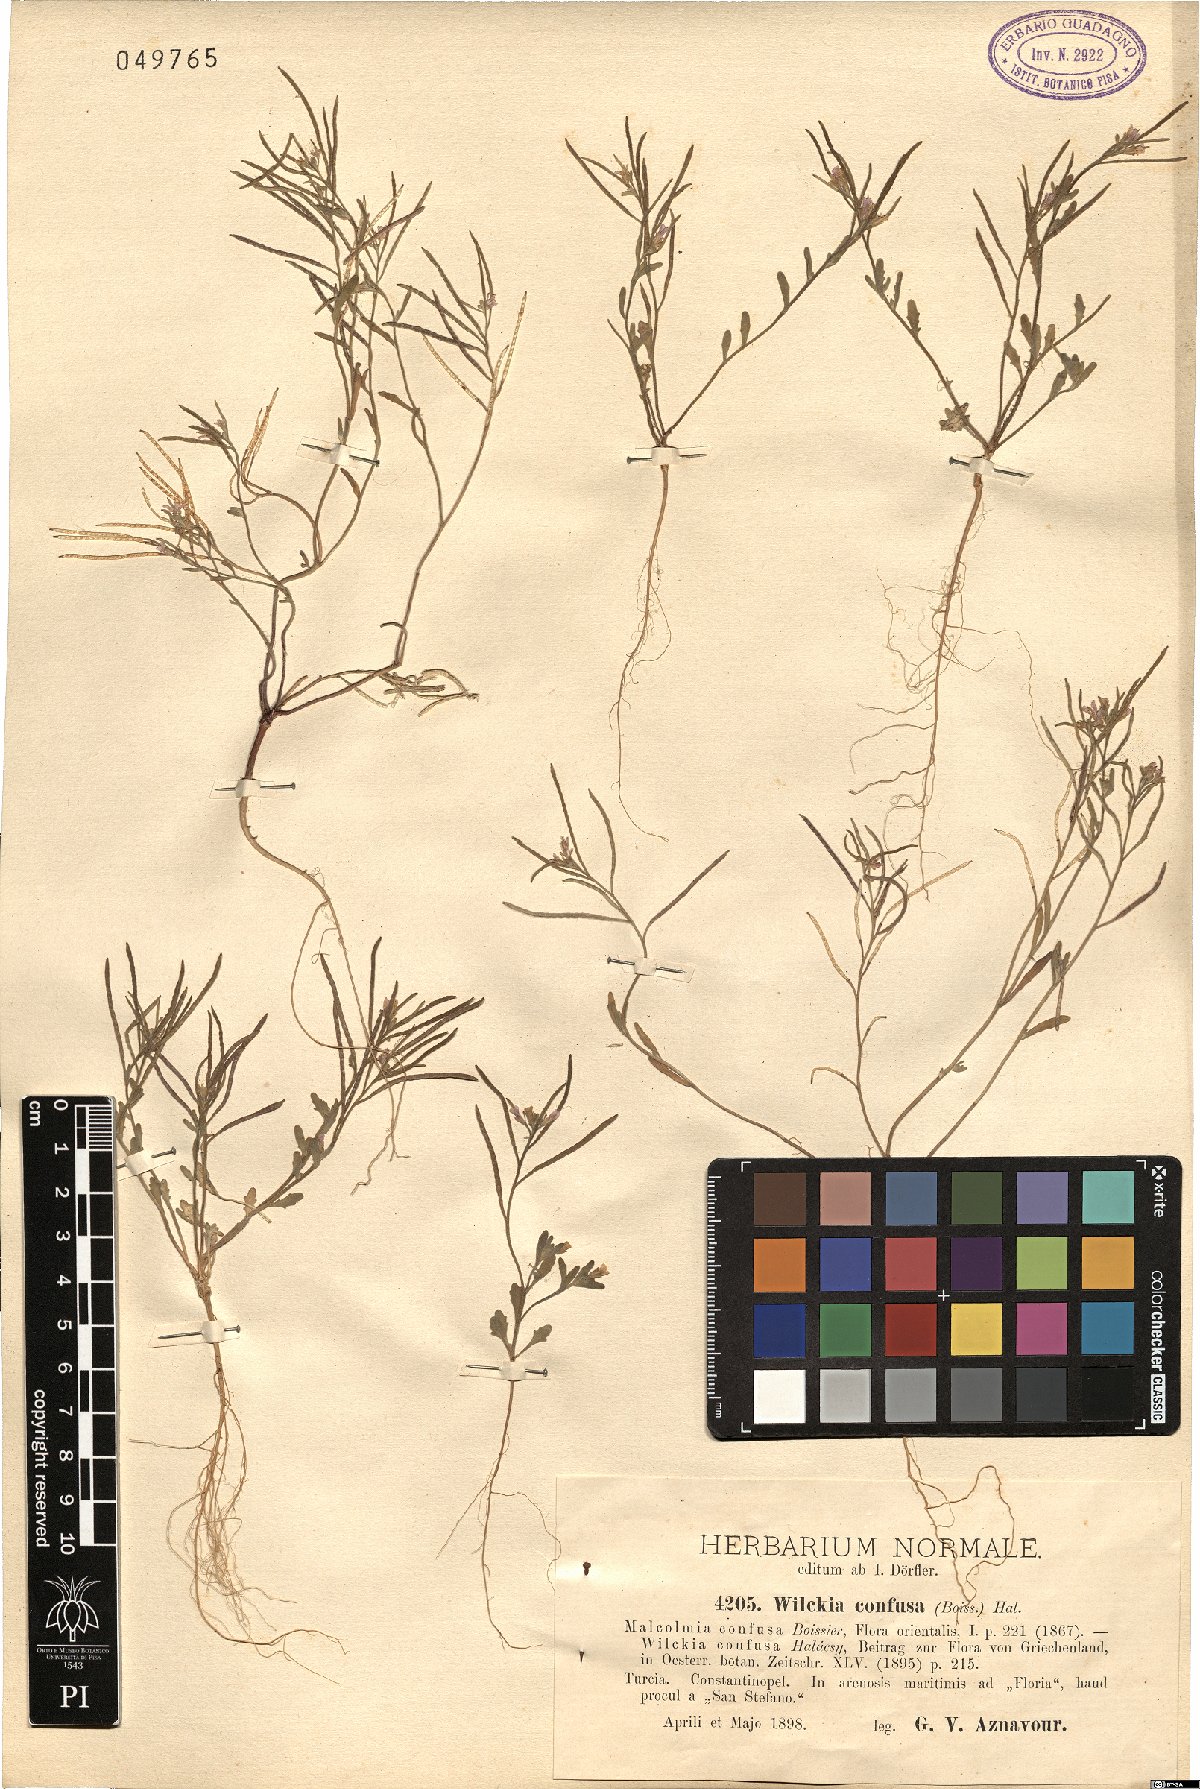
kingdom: Plantae
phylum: Tracheophyta
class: Magnoliopsida
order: Brassicales
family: Brassicaceae
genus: Maresia
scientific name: Maresia nana
